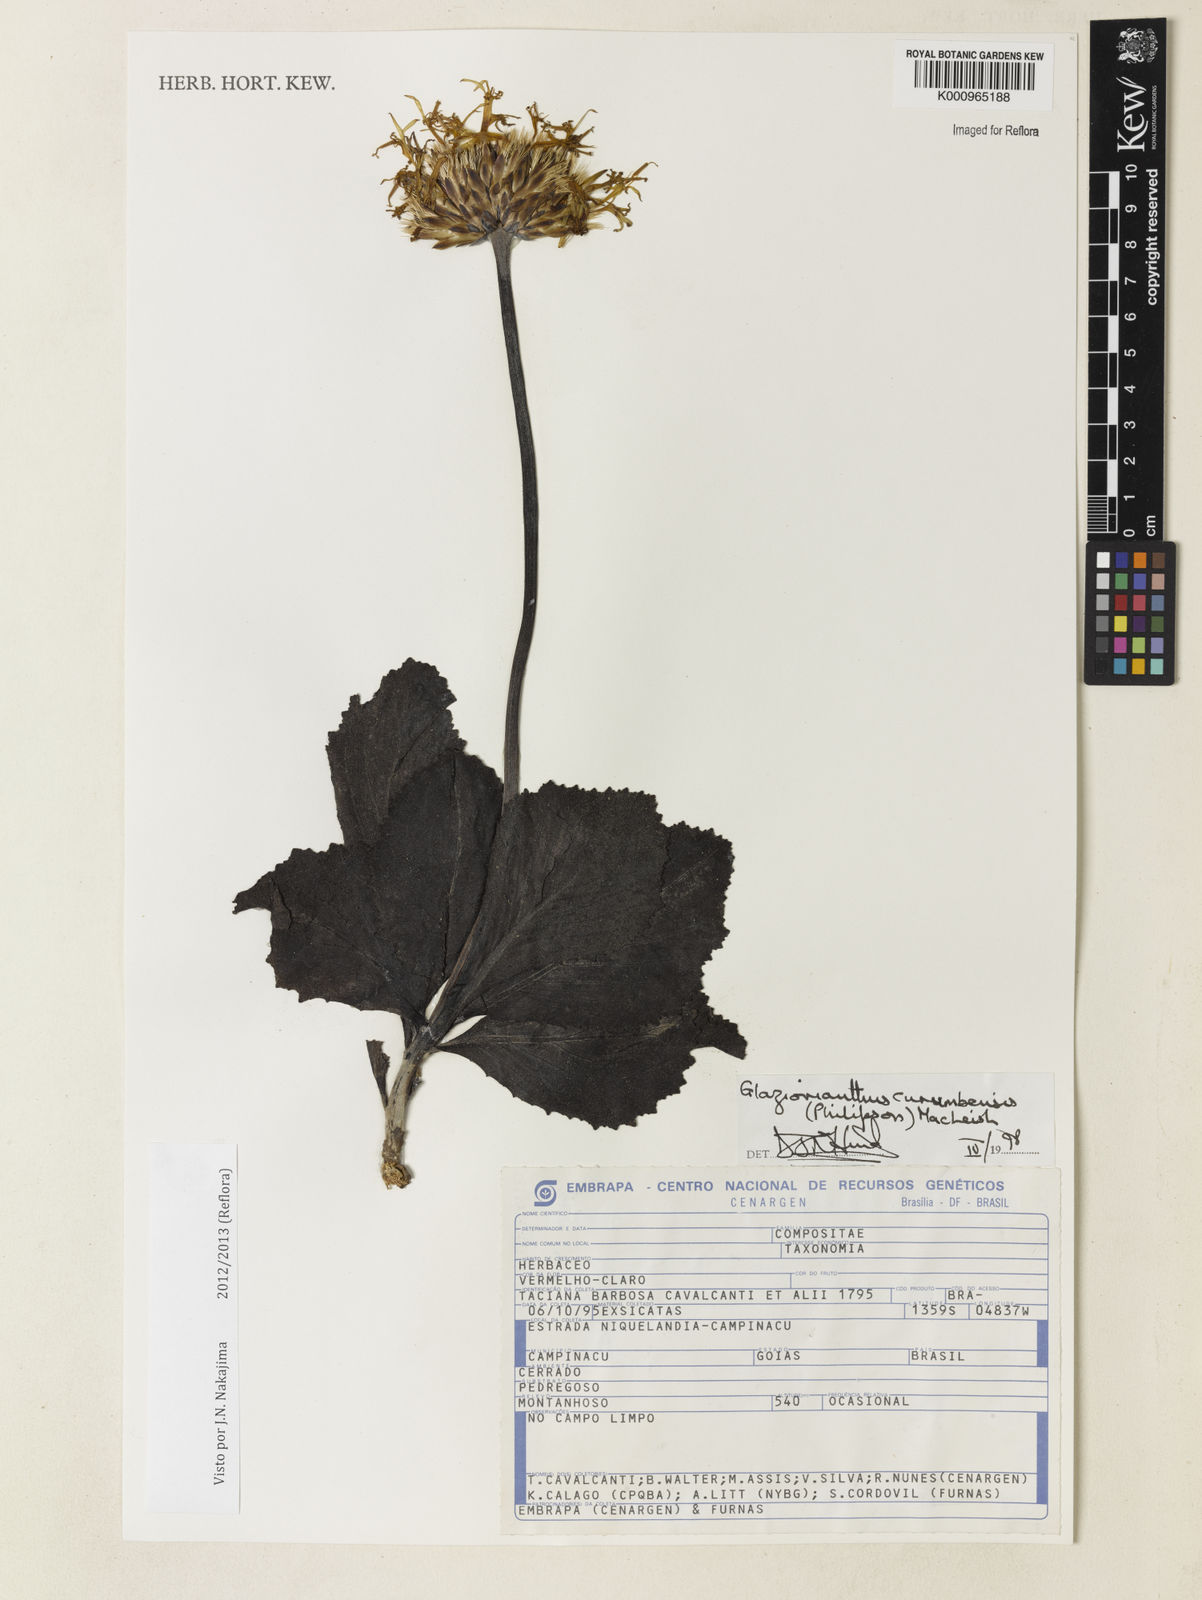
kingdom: Plantae
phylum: Tracheophyta
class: Magnoliopsida
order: Asterales
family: Asteraceae
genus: Chresta
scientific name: Chresta curumbensis
